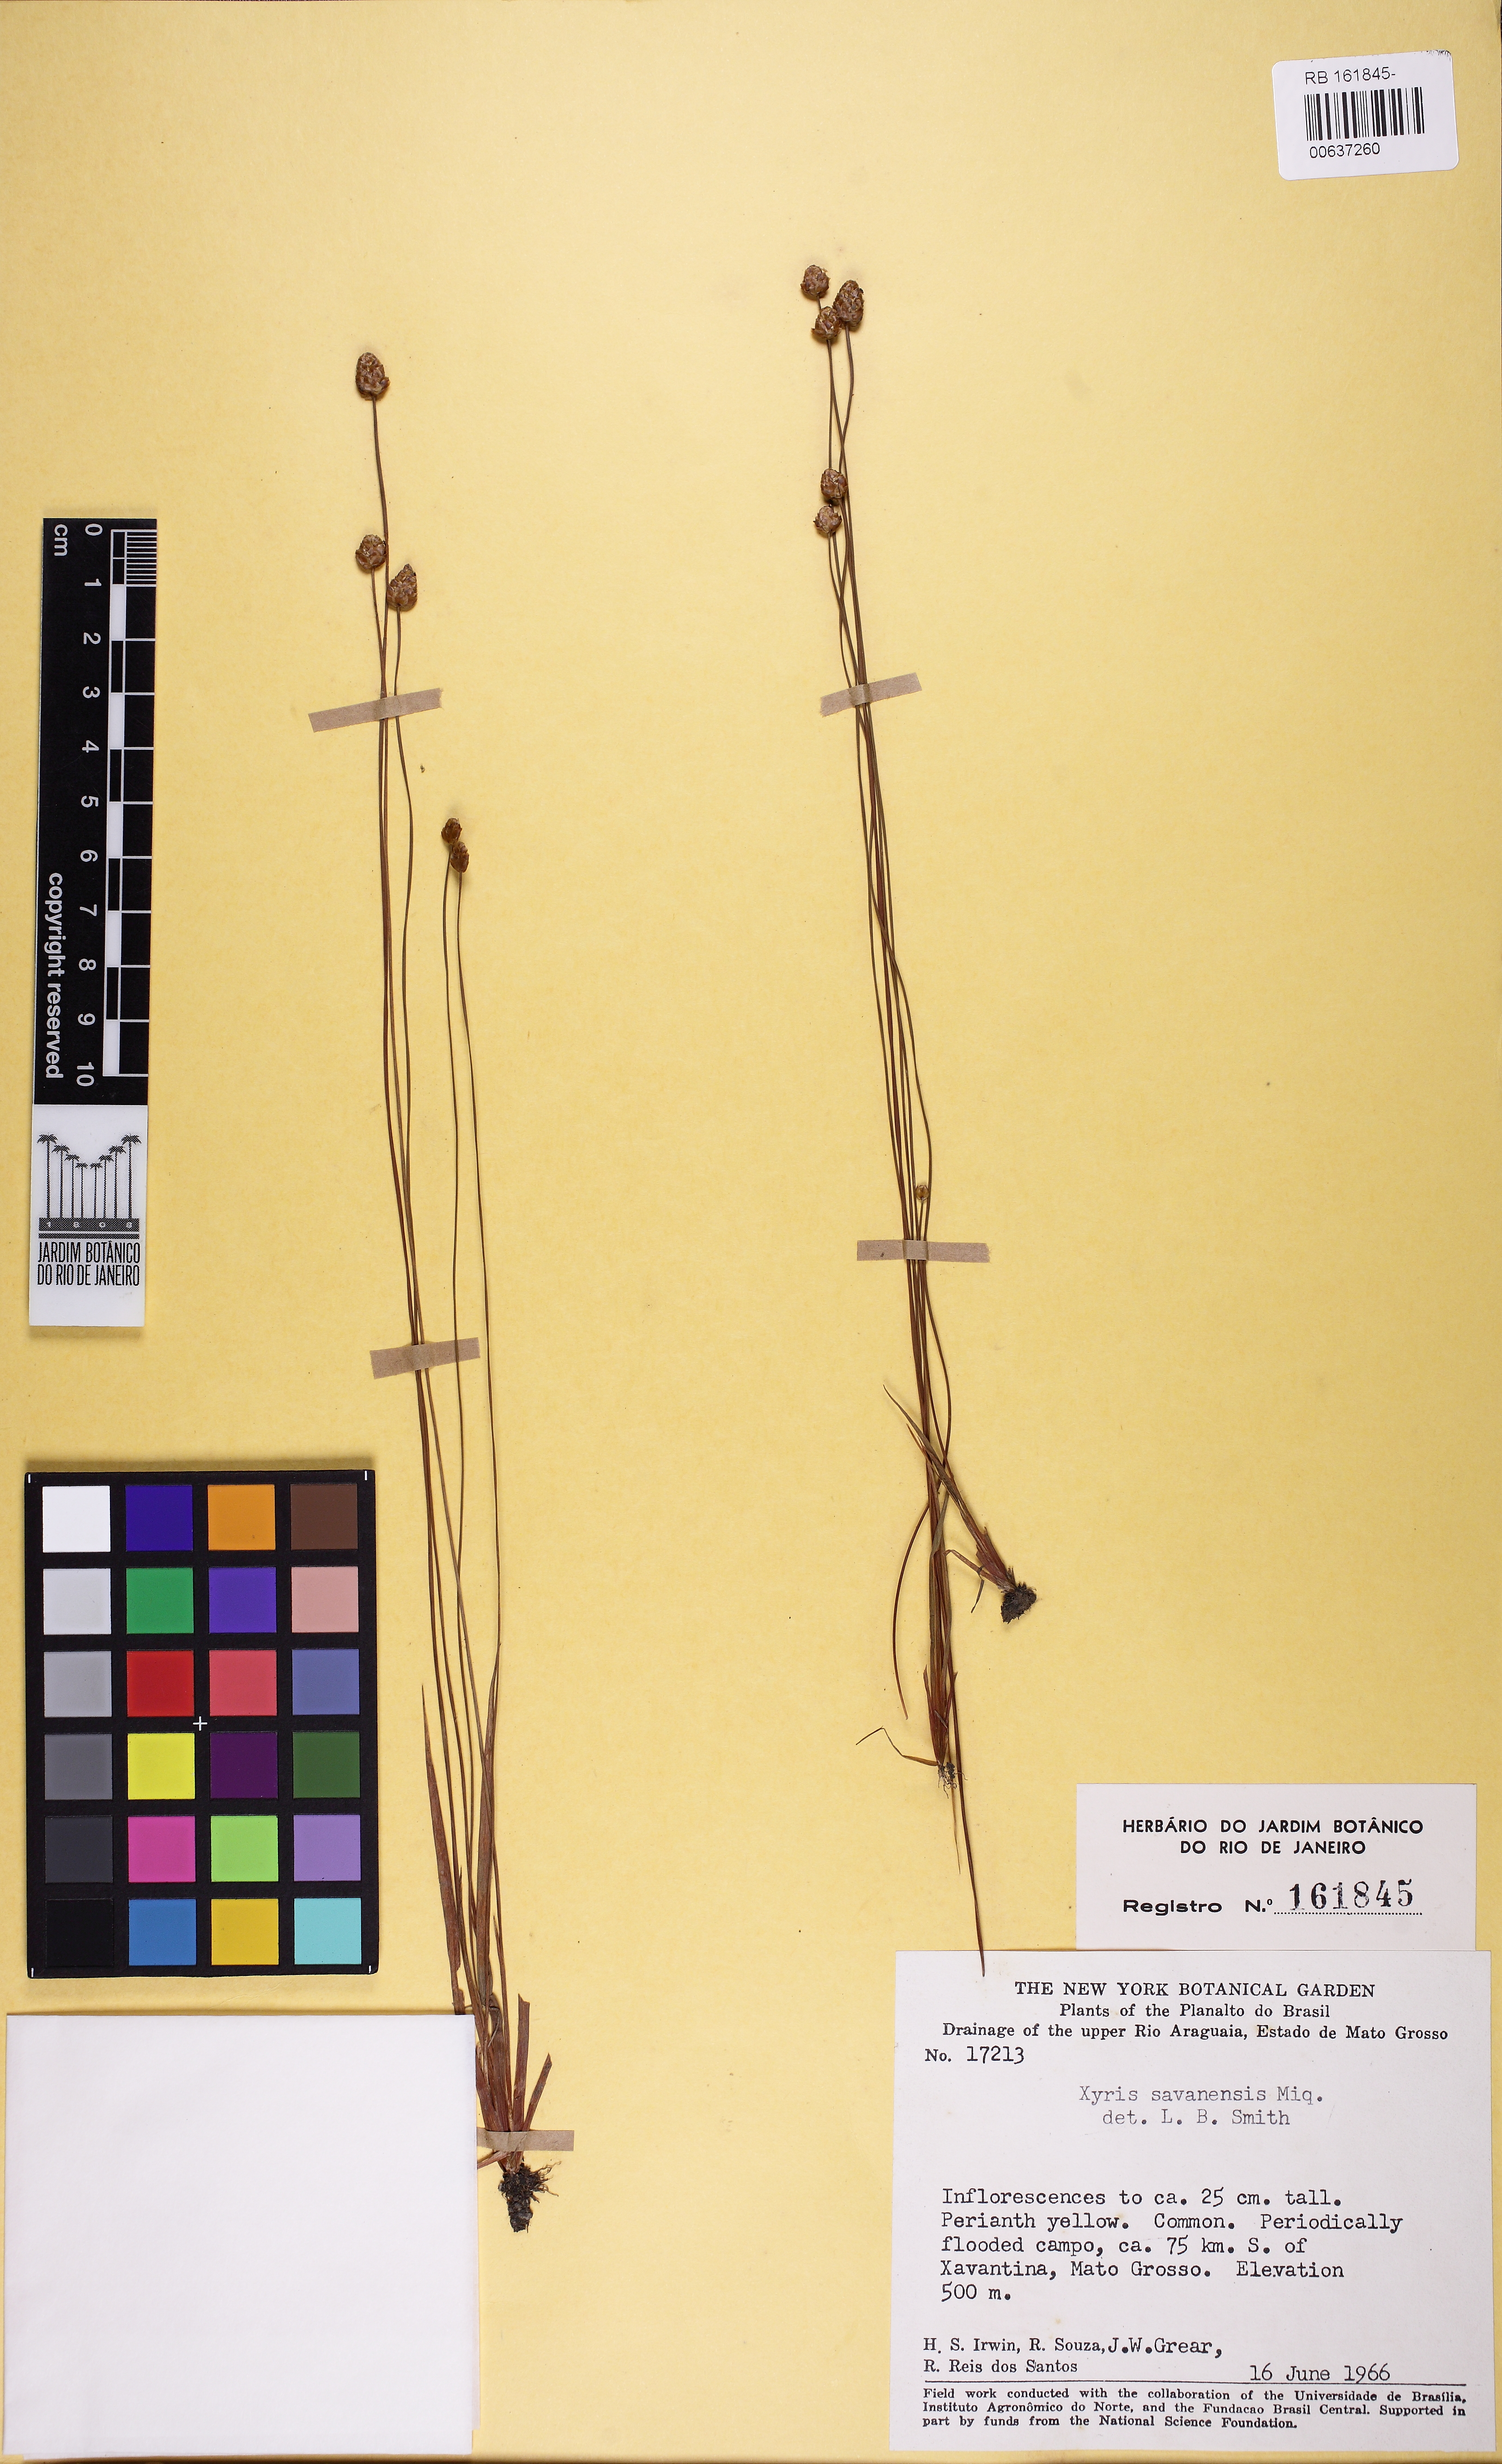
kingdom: Plantae
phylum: Tracheophyta
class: Liliopsida
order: Poales
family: Xyridaceae
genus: Xyris
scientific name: Xyris savanensis
